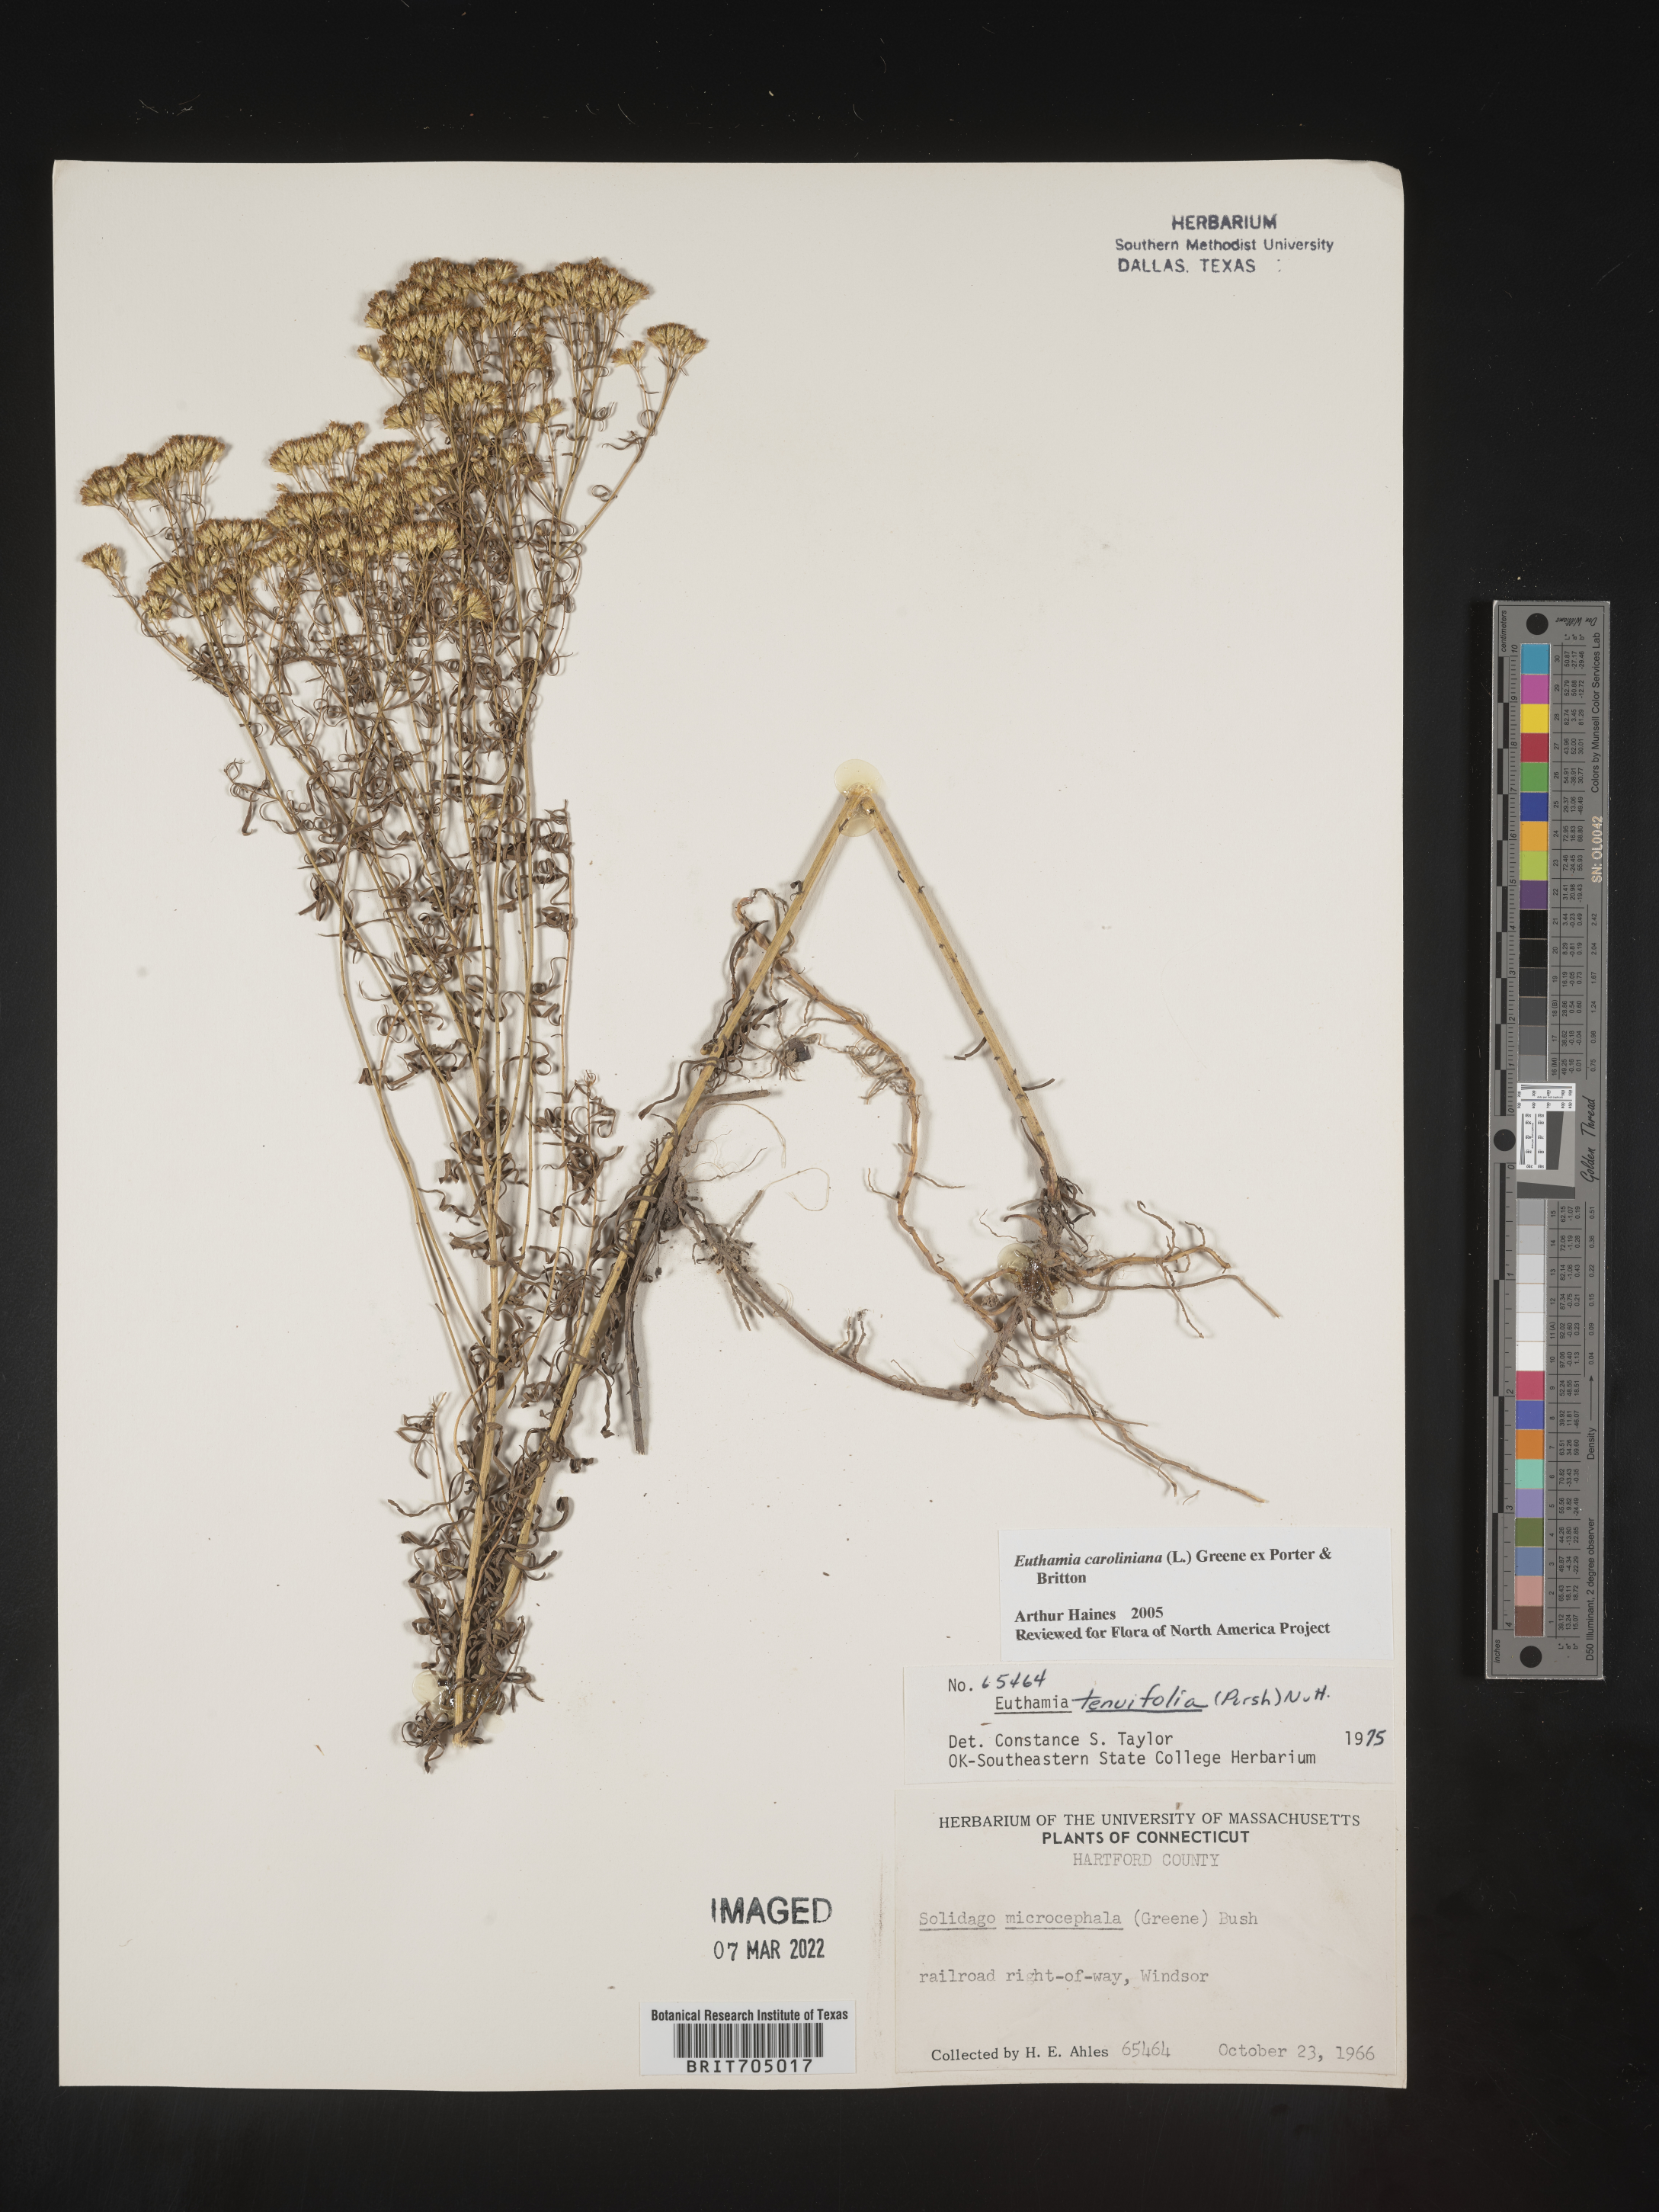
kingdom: Plantae
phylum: Tracheophyta
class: Magnoliopsida
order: Asterales
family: Asteraceae
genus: Euthamia
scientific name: Euthamia caroliniana
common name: Coastal plain goldentop
